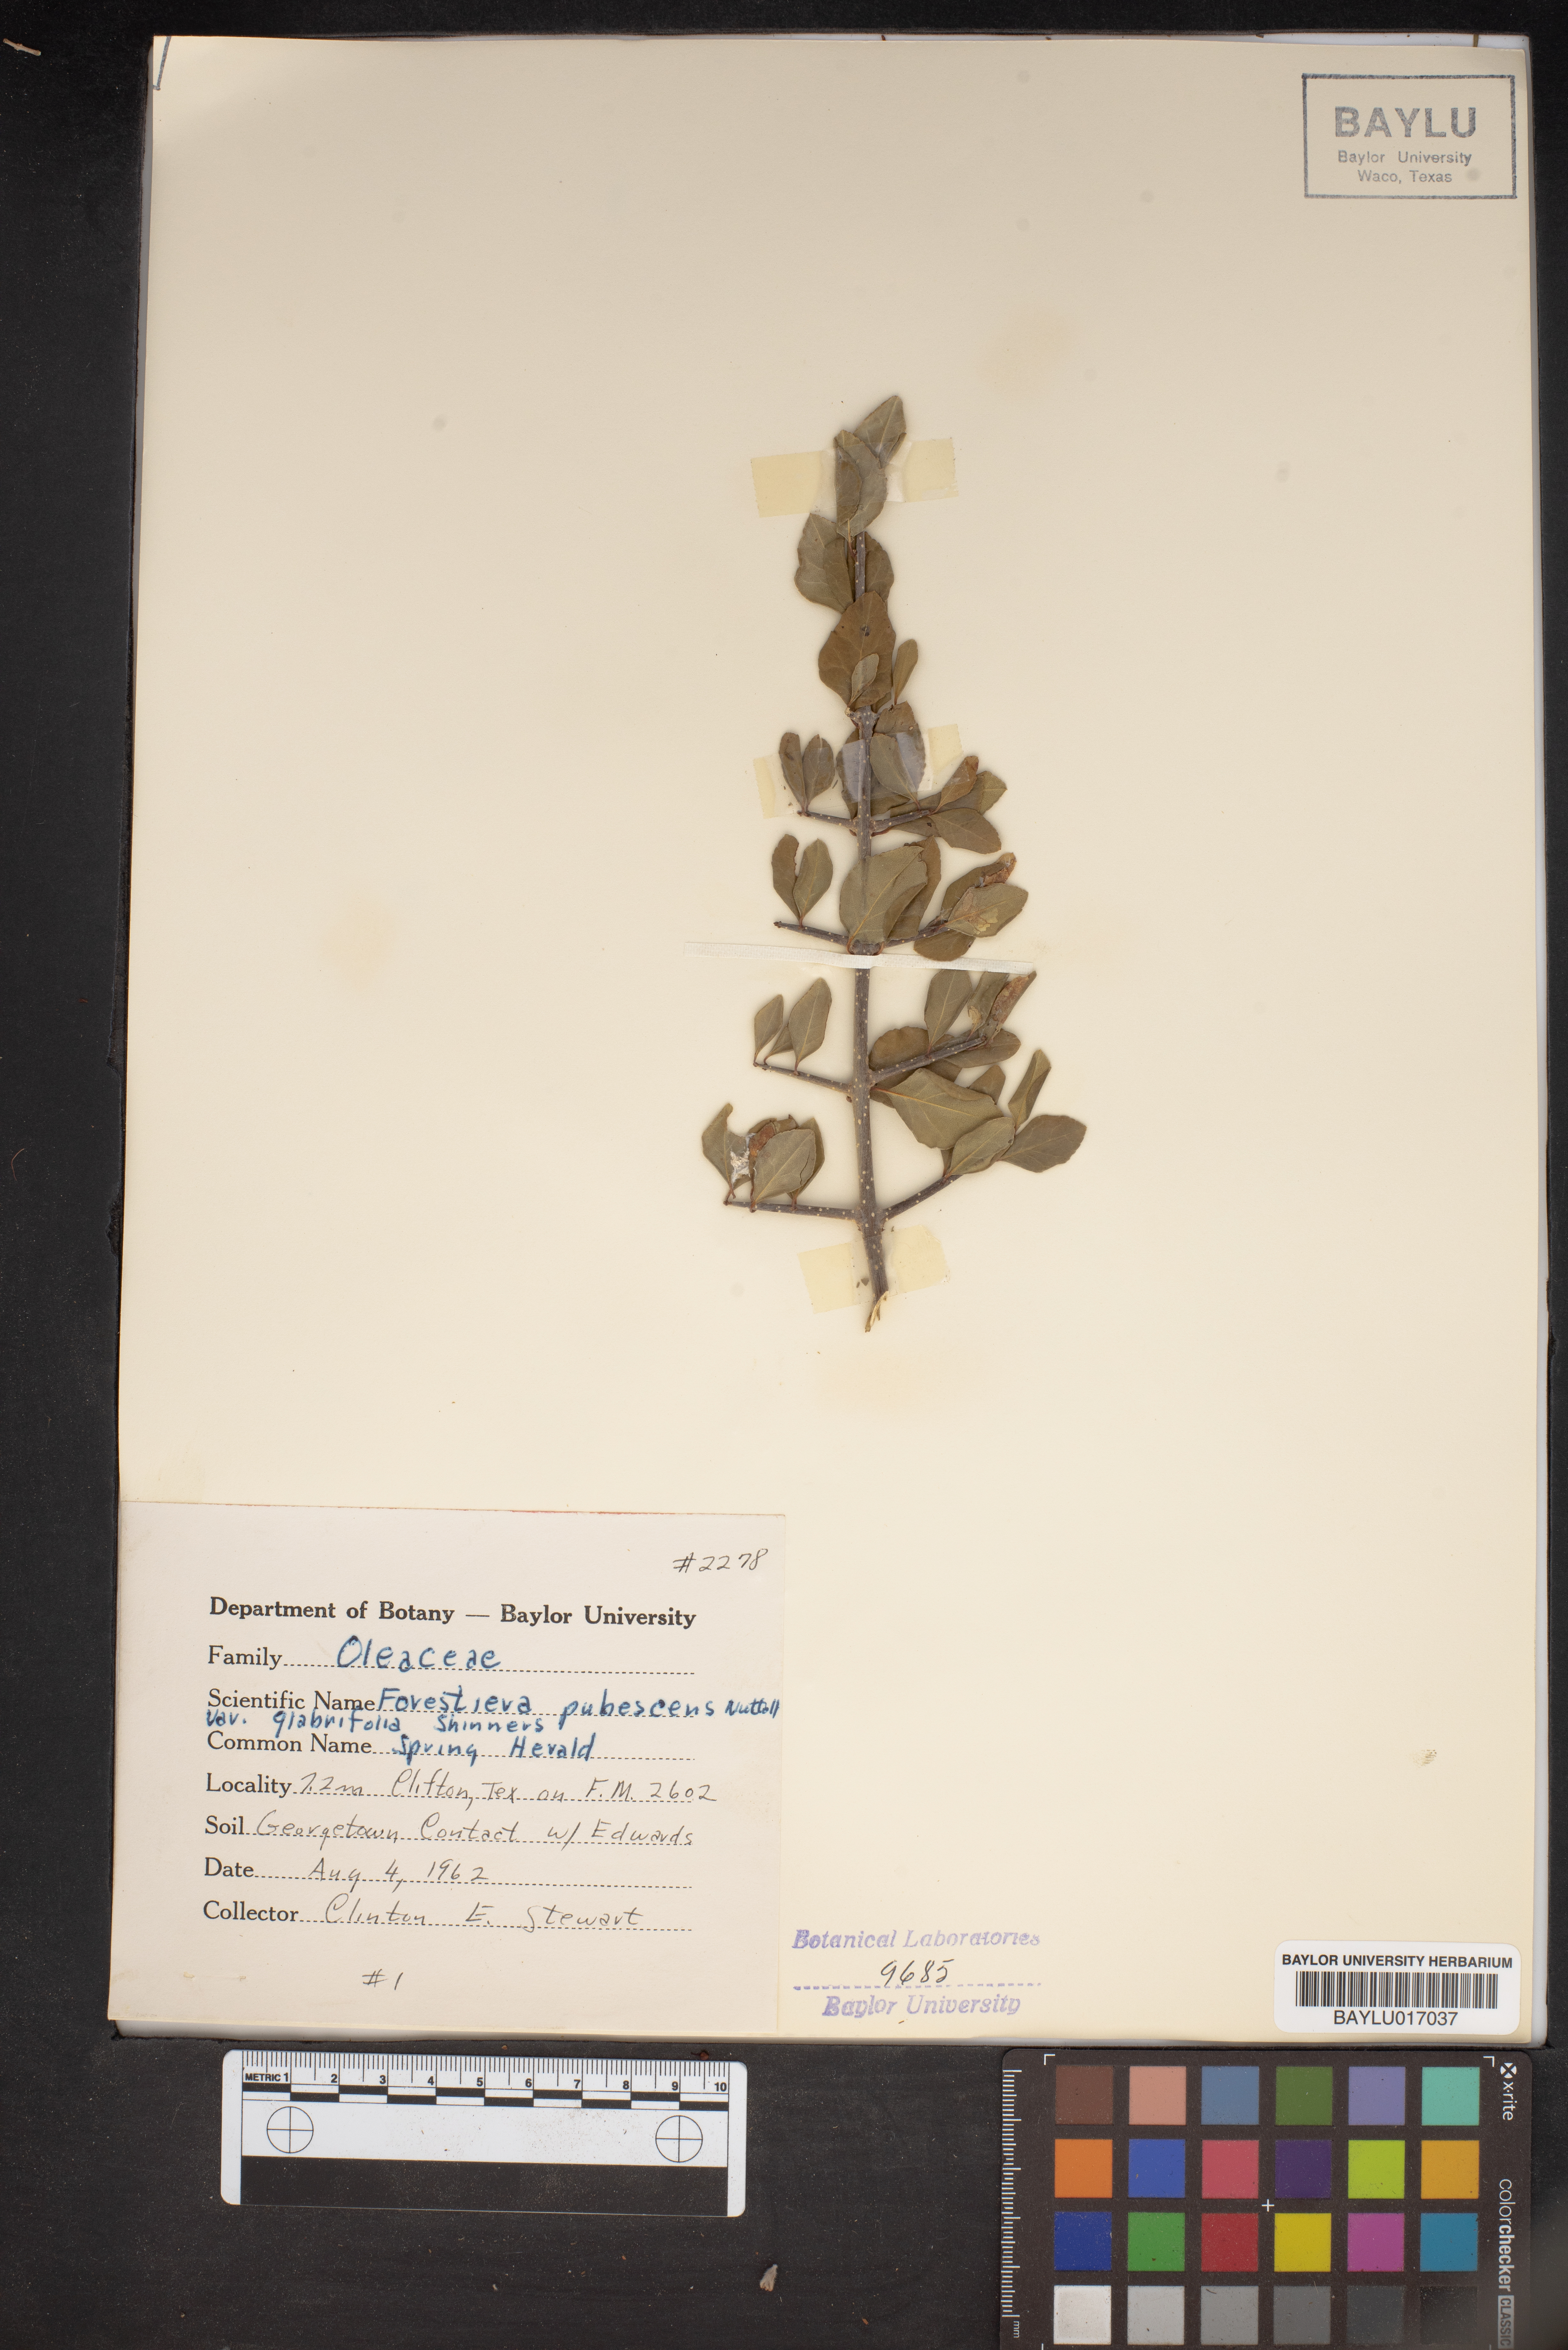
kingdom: Plantae
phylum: Tracheophyta
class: Magnoliopsida
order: Lamiales
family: Oleaceae
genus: Forestiera
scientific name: Forestiera pubescens
